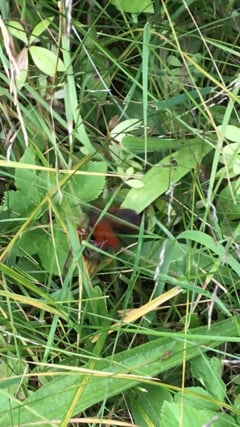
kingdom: Animalia
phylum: Arthropoda
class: Insecta
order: Hymenoptera
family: Vespidae
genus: Vespa
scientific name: Vespa crabro
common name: Hornet
